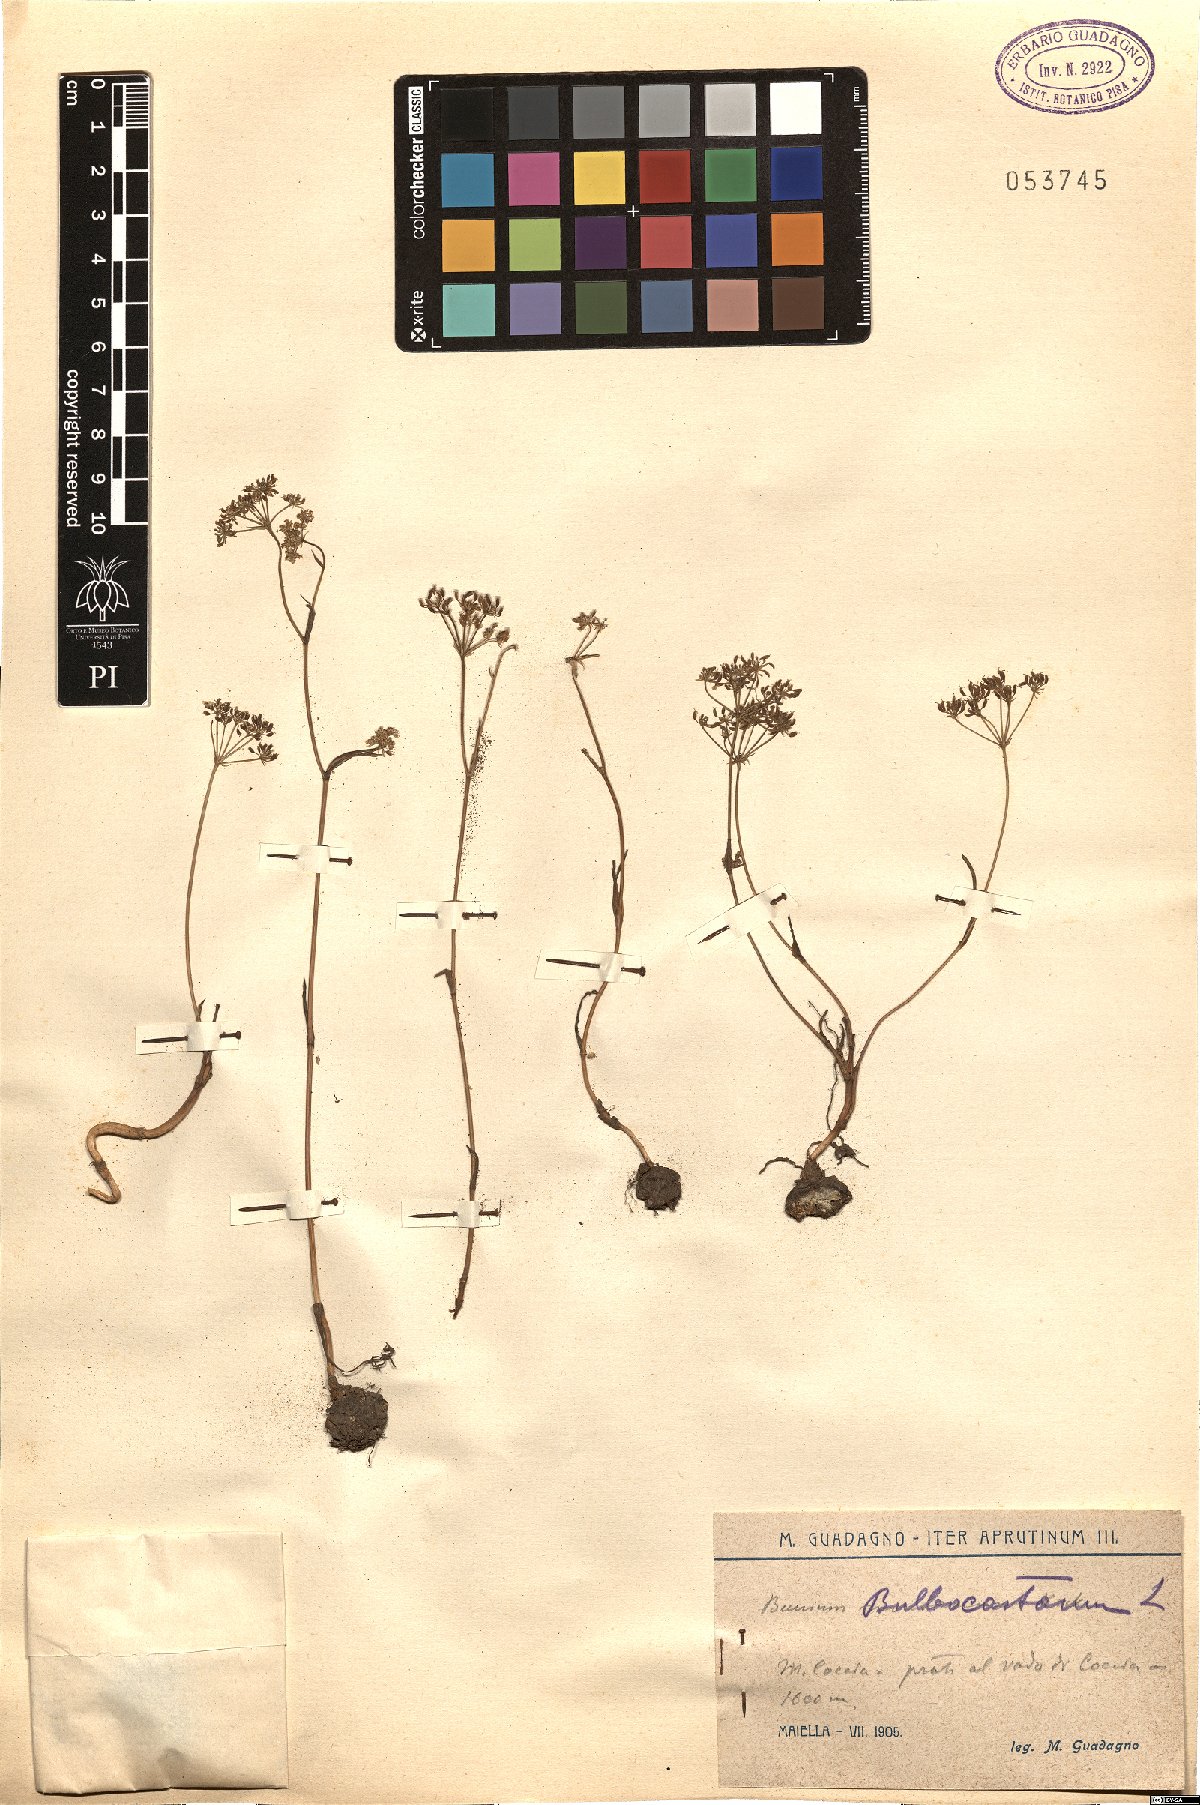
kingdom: Plantae
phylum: Tracheophyta
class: Magnoliopsida
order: Apiales
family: Apiaceae
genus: Bunium
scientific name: Bunium bulbocastanum
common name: Great pignut
